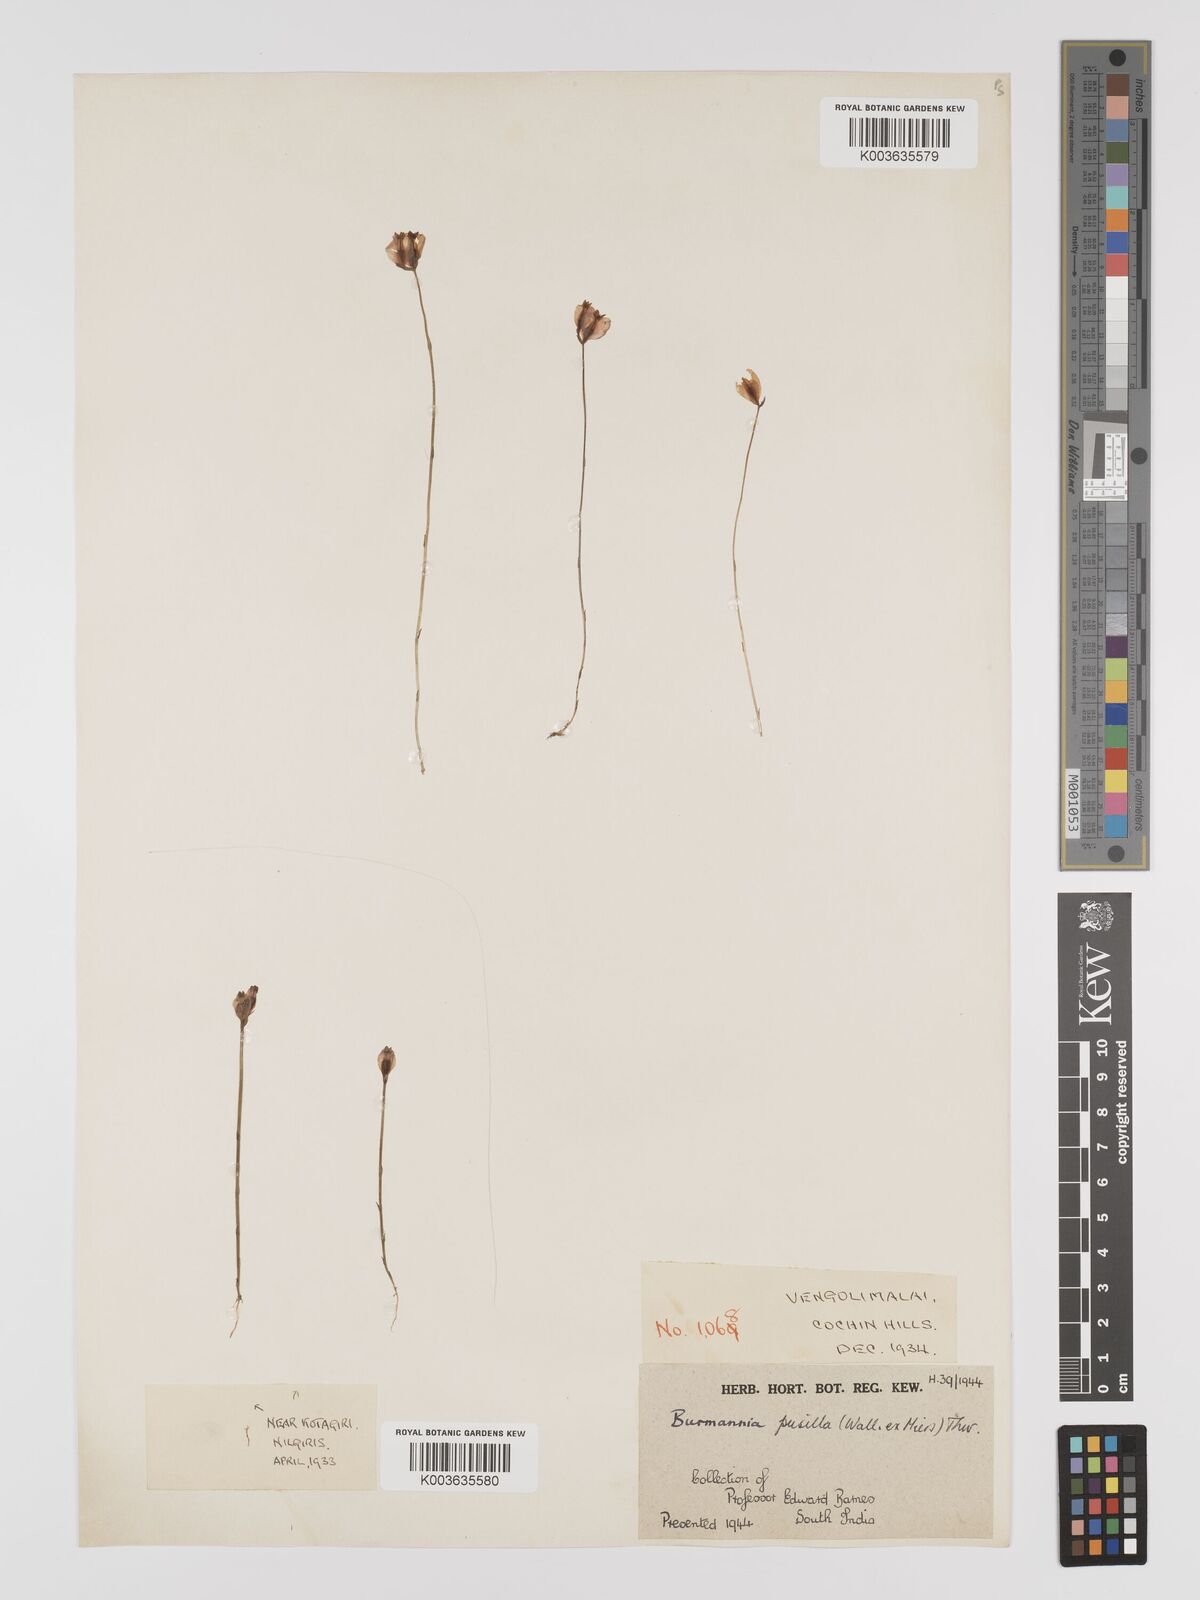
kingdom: Plantae
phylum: Tracheophyta
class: Liliopsida
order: Dioscoreales
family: Burmanniaceae
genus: Burmannia
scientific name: Burmannia pusilla
